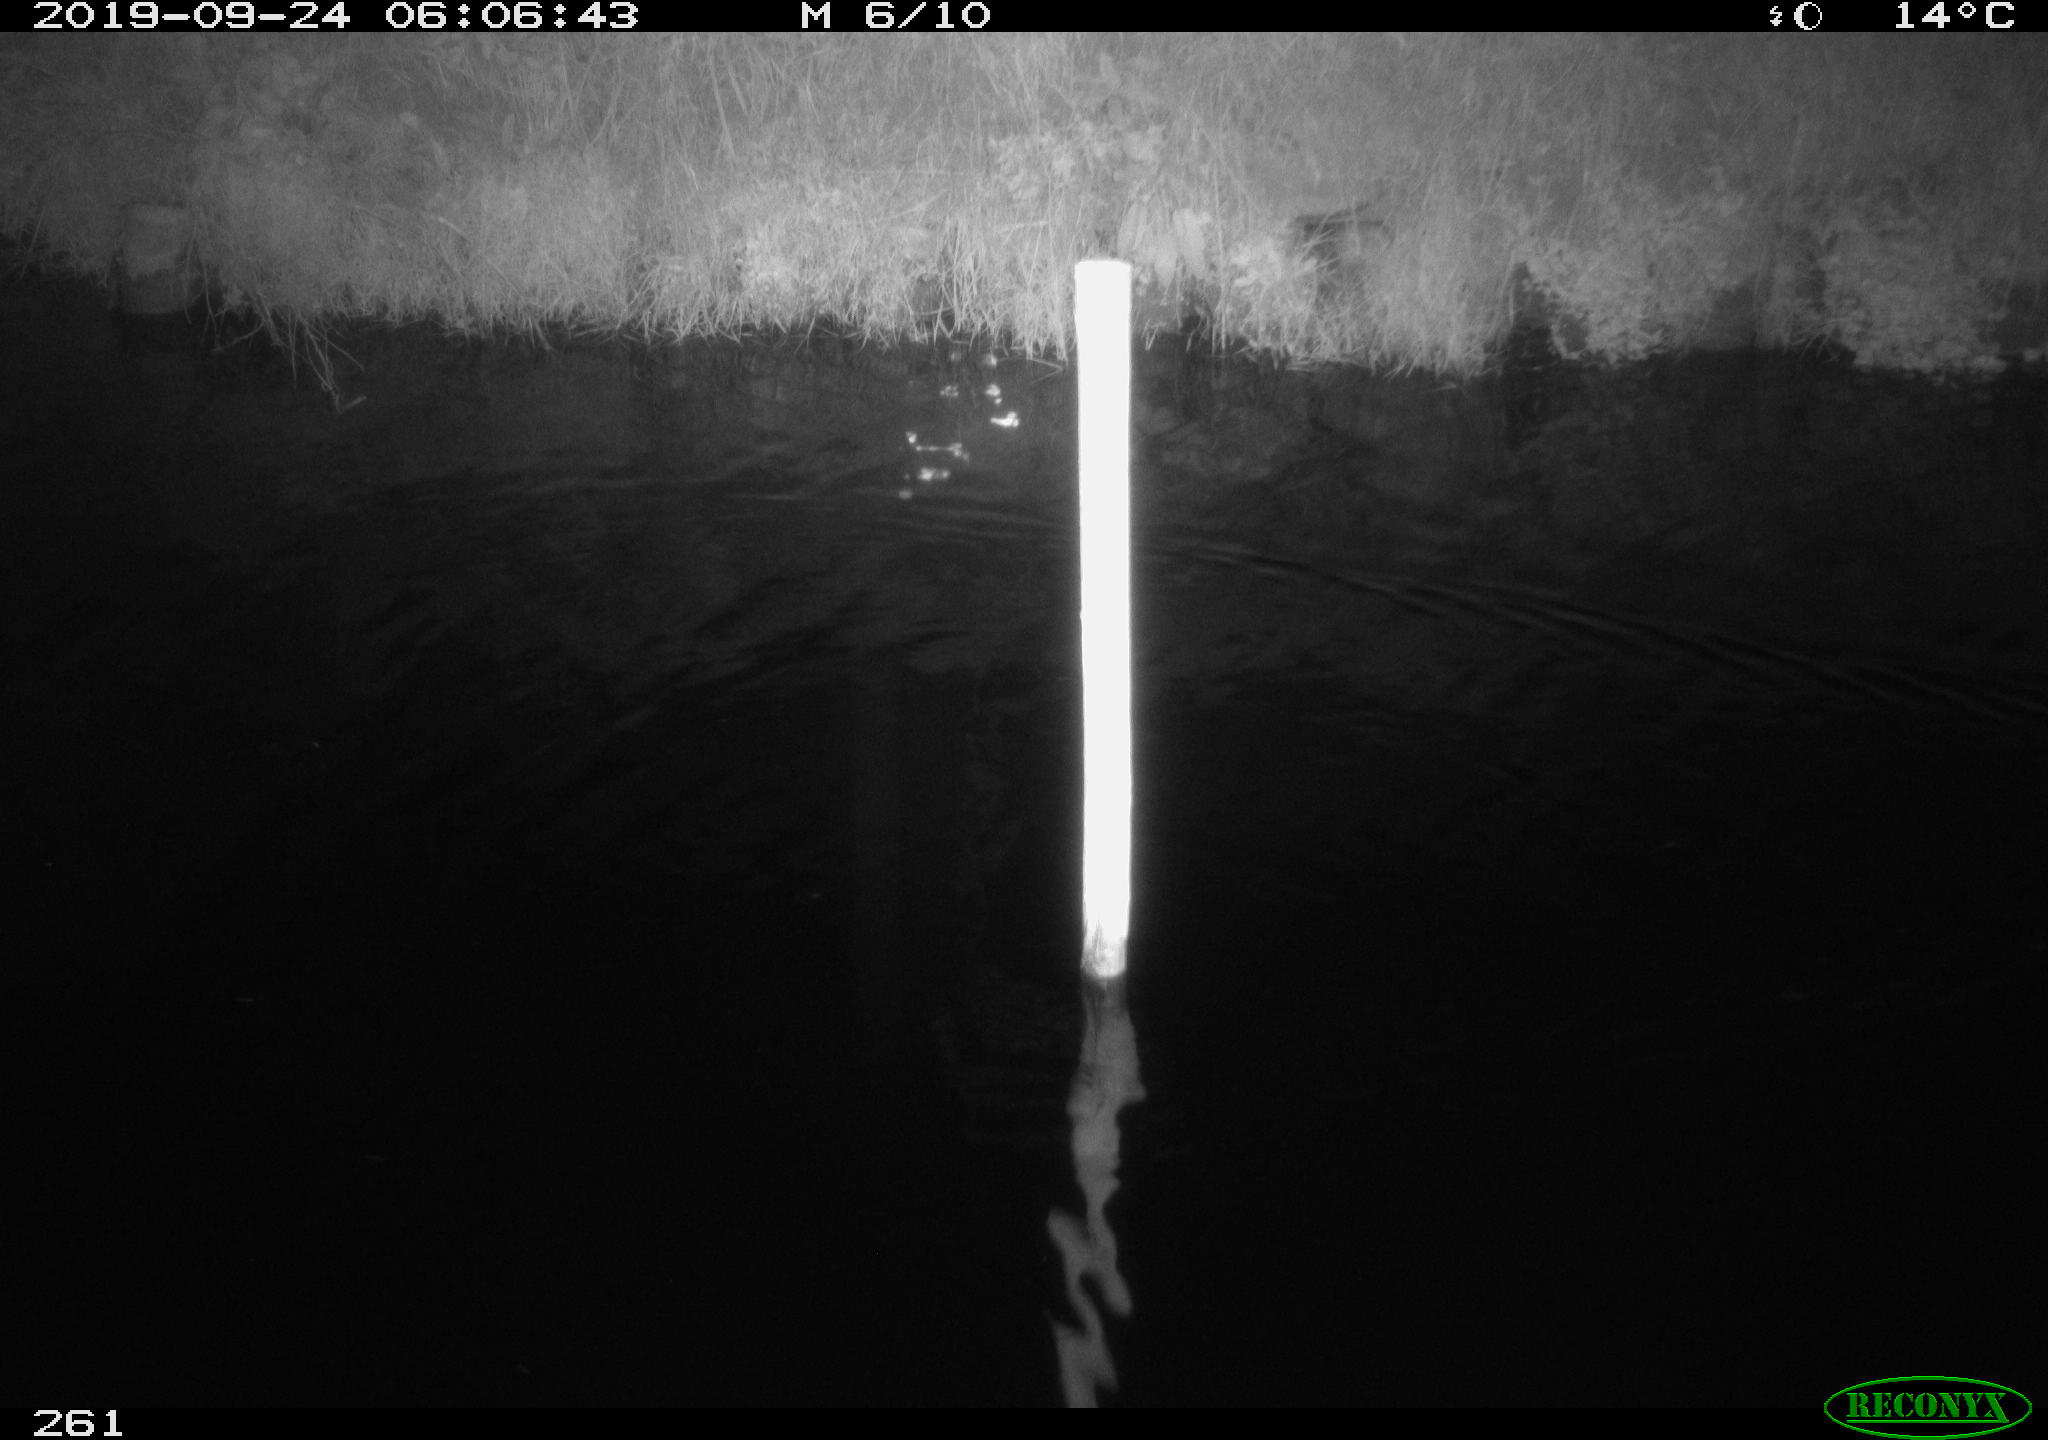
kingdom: Animalia
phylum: Chordata
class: Aves
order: Anseriformes
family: Anatidae
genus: Anas
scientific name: Anas platyrhynchos
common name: Mallard
